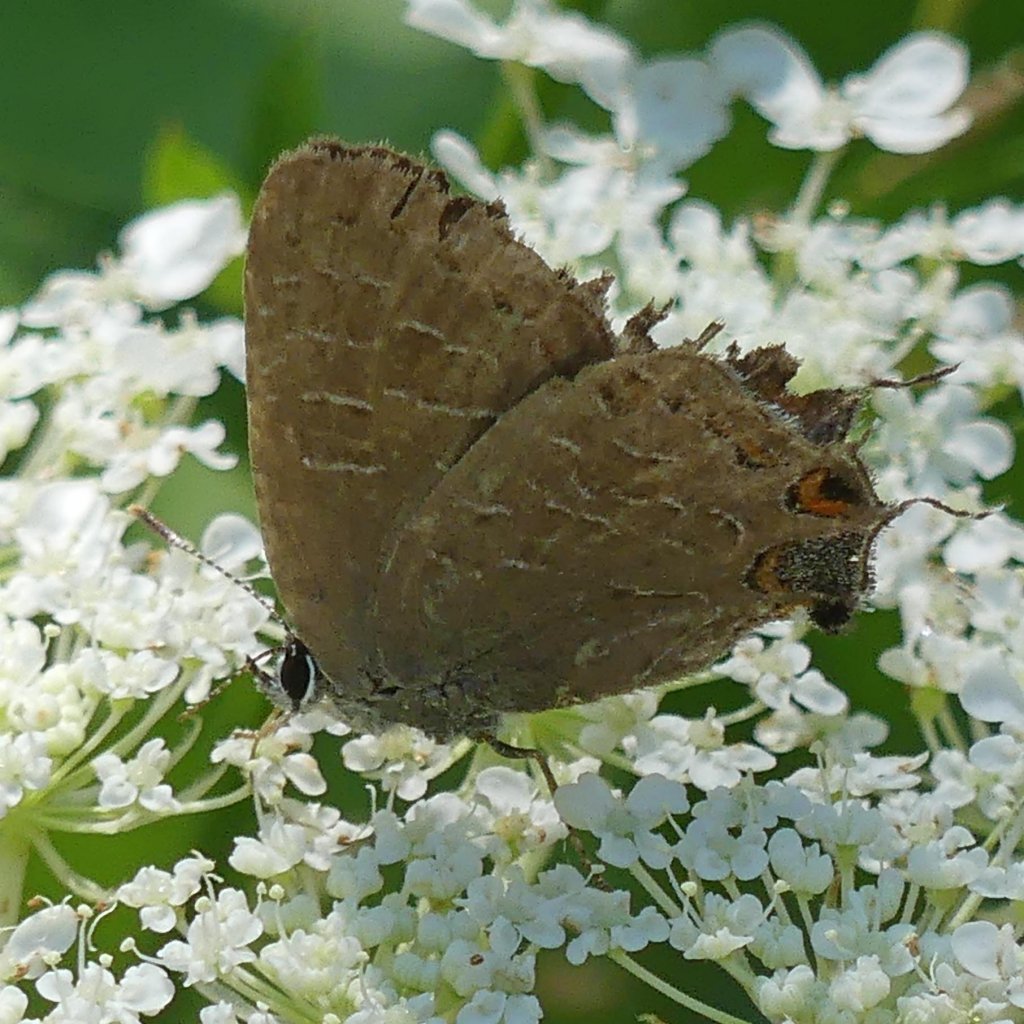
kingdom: Animalia
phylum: Arthropoda
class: Insecta
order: Lepidoptera
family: Lycaenidae
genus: Satyrium
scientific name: Satyrium liparops
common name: Striped Hairstreak
